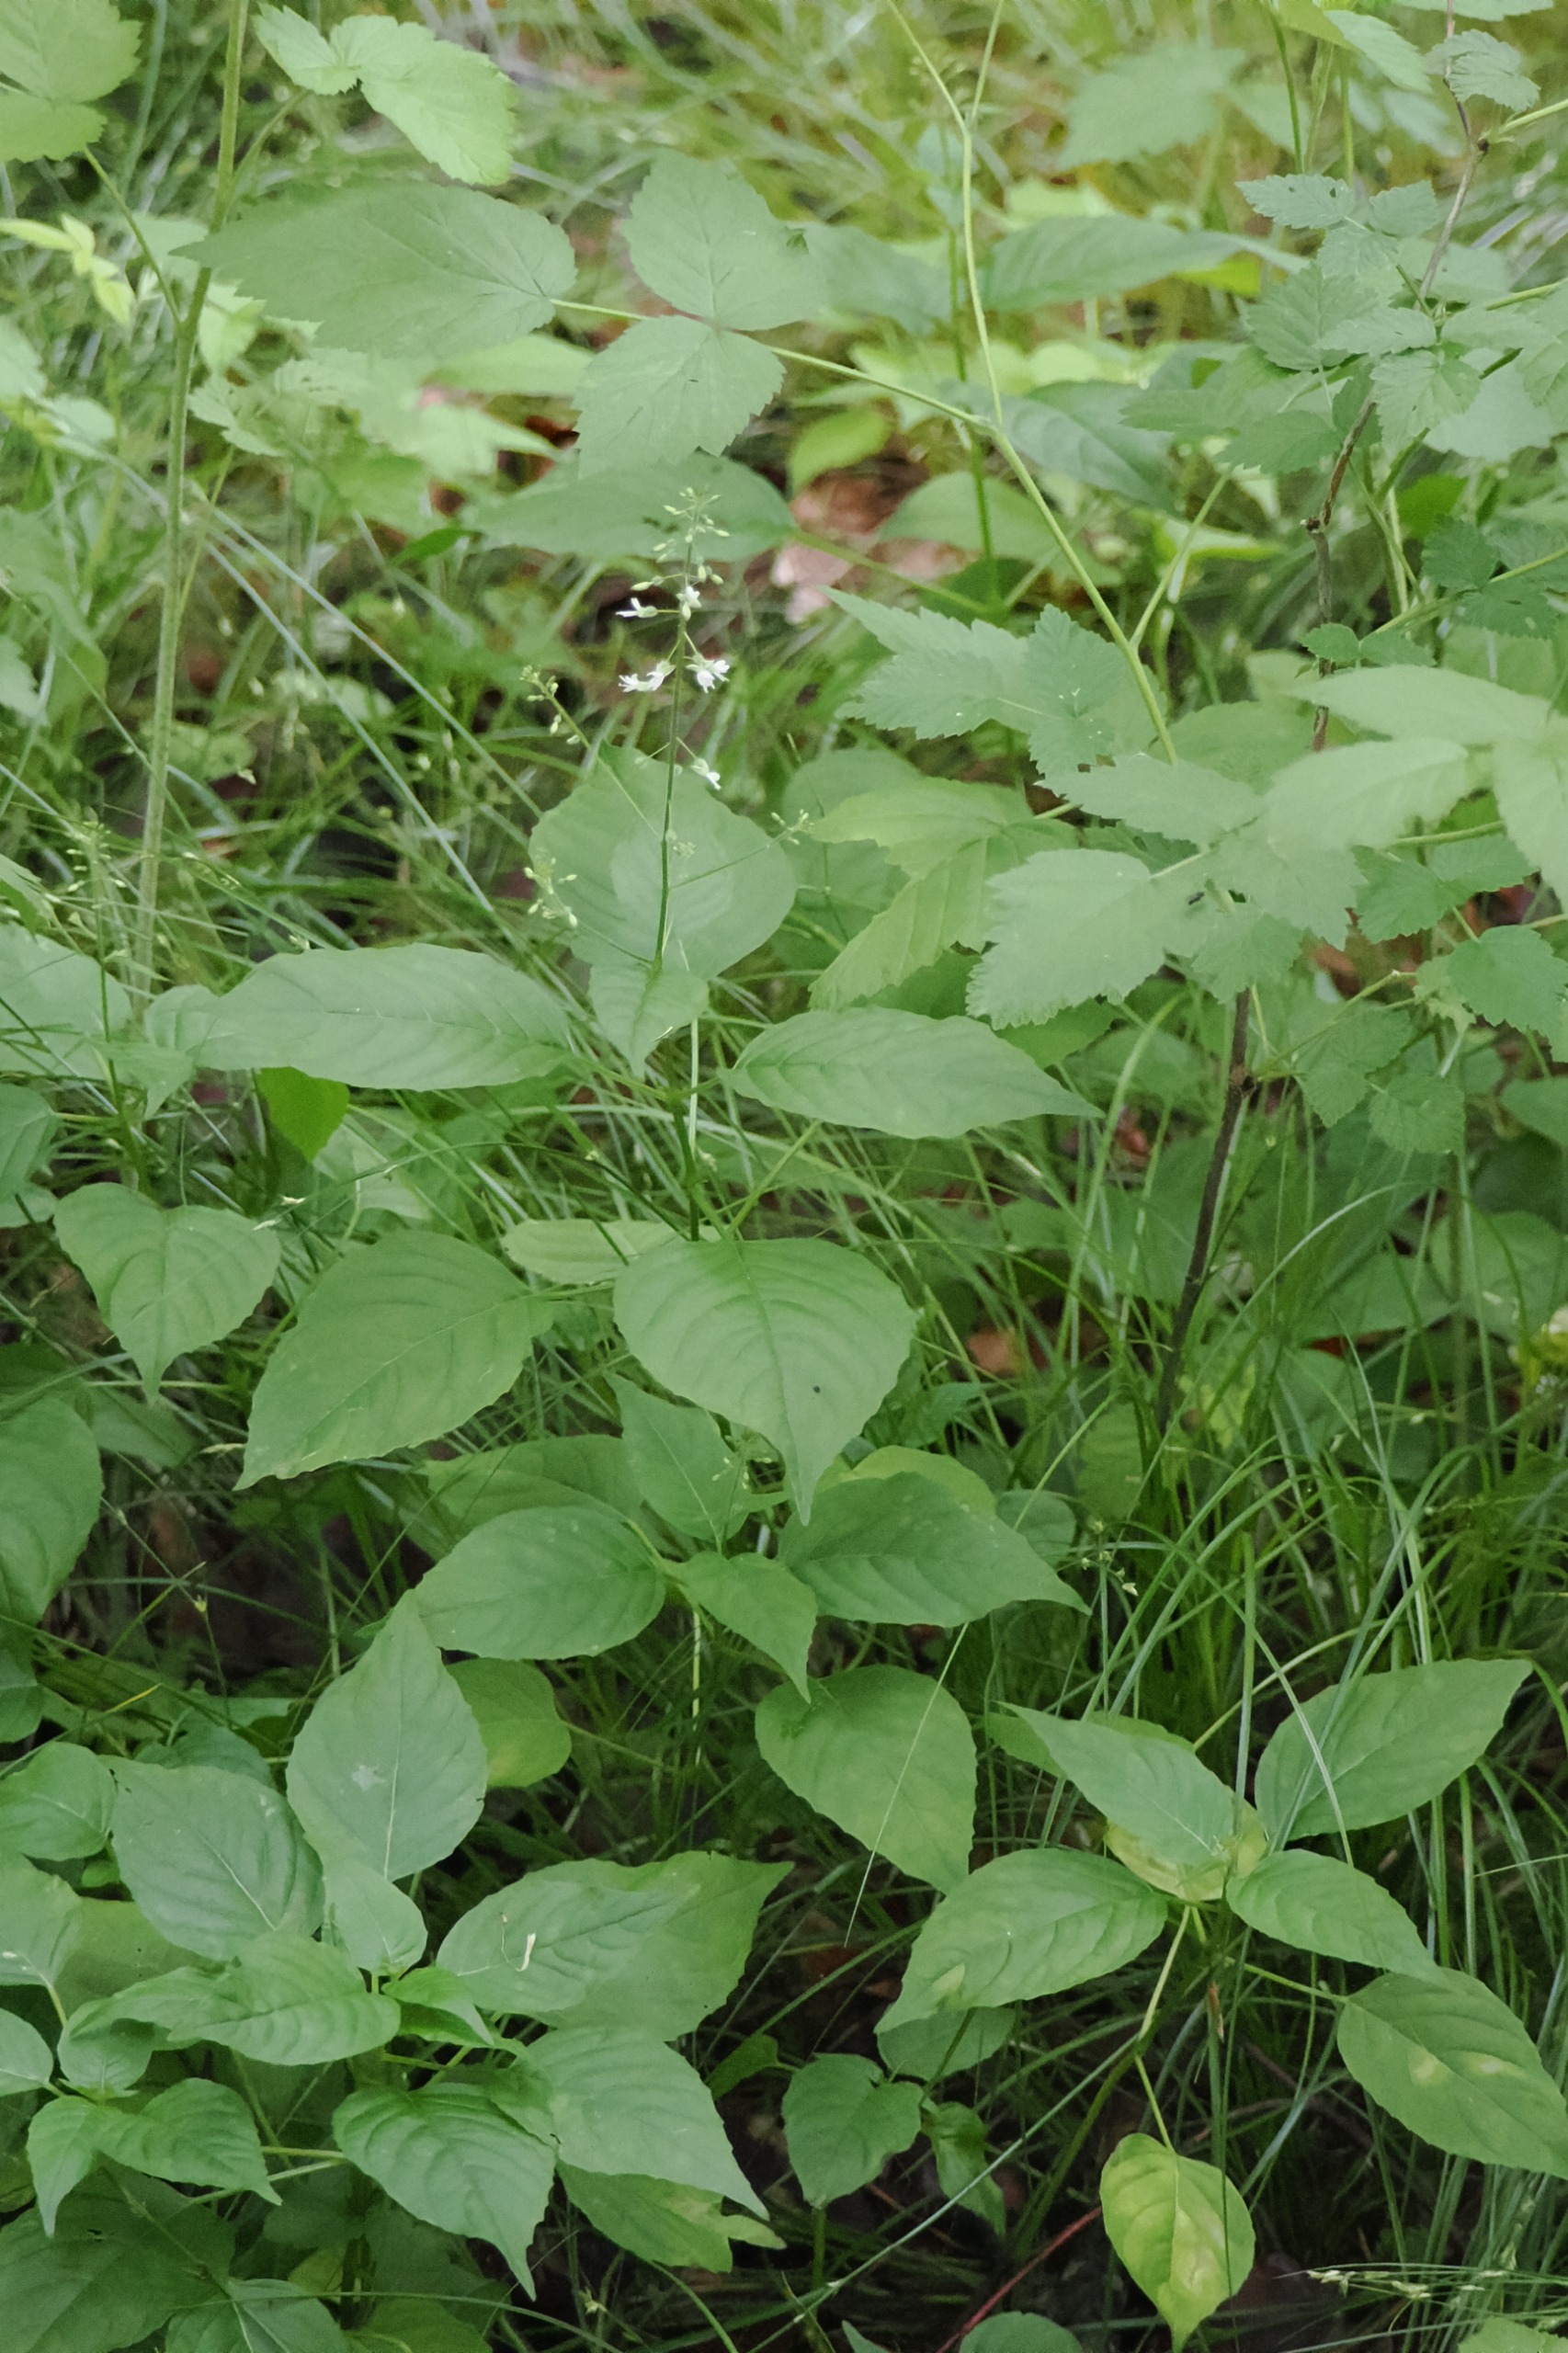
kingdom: Plantae
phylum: Tracheophyta
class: Magnoliopsida
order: Myrtales
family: Onagraceae
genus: Circaea
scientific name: Circaea lutetiana
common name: Dunet steffensurt
